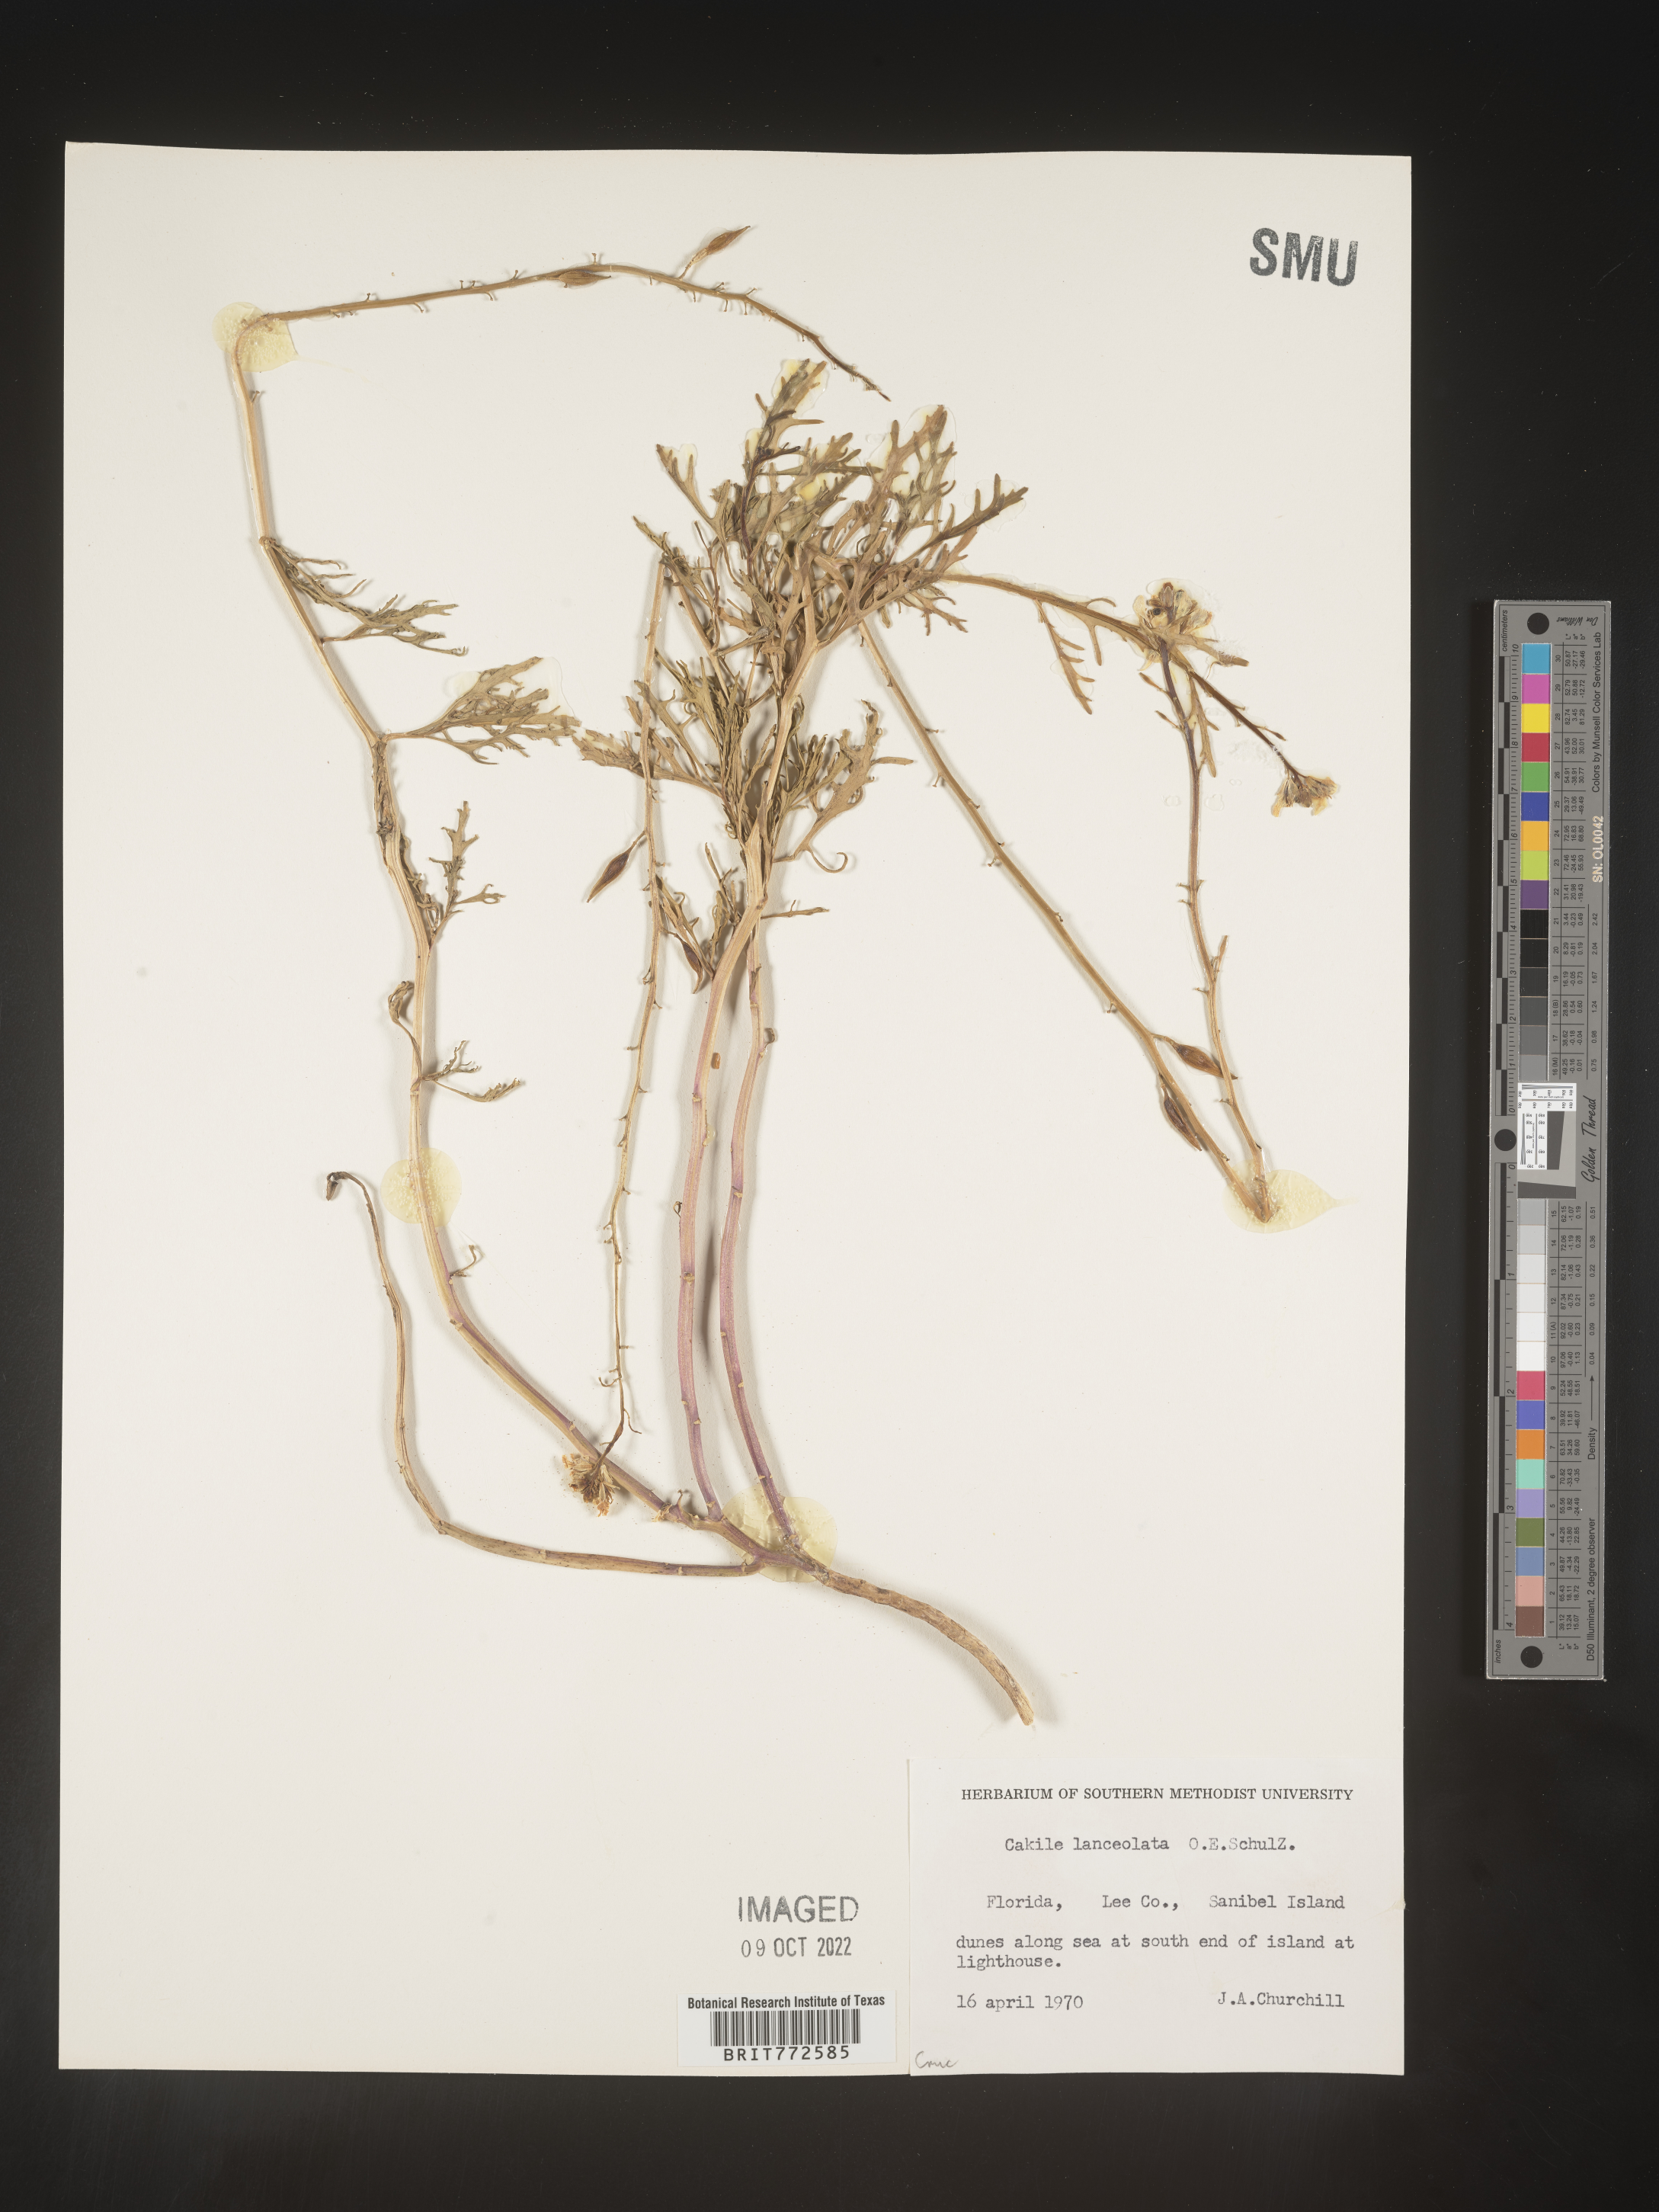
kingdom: Plantae
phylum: Tracheophyta
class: Magnoliopsida
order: Brassicales
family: Brassicaceae
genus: Cakile
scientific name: Cakile lanceolata
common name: Sea rocket
